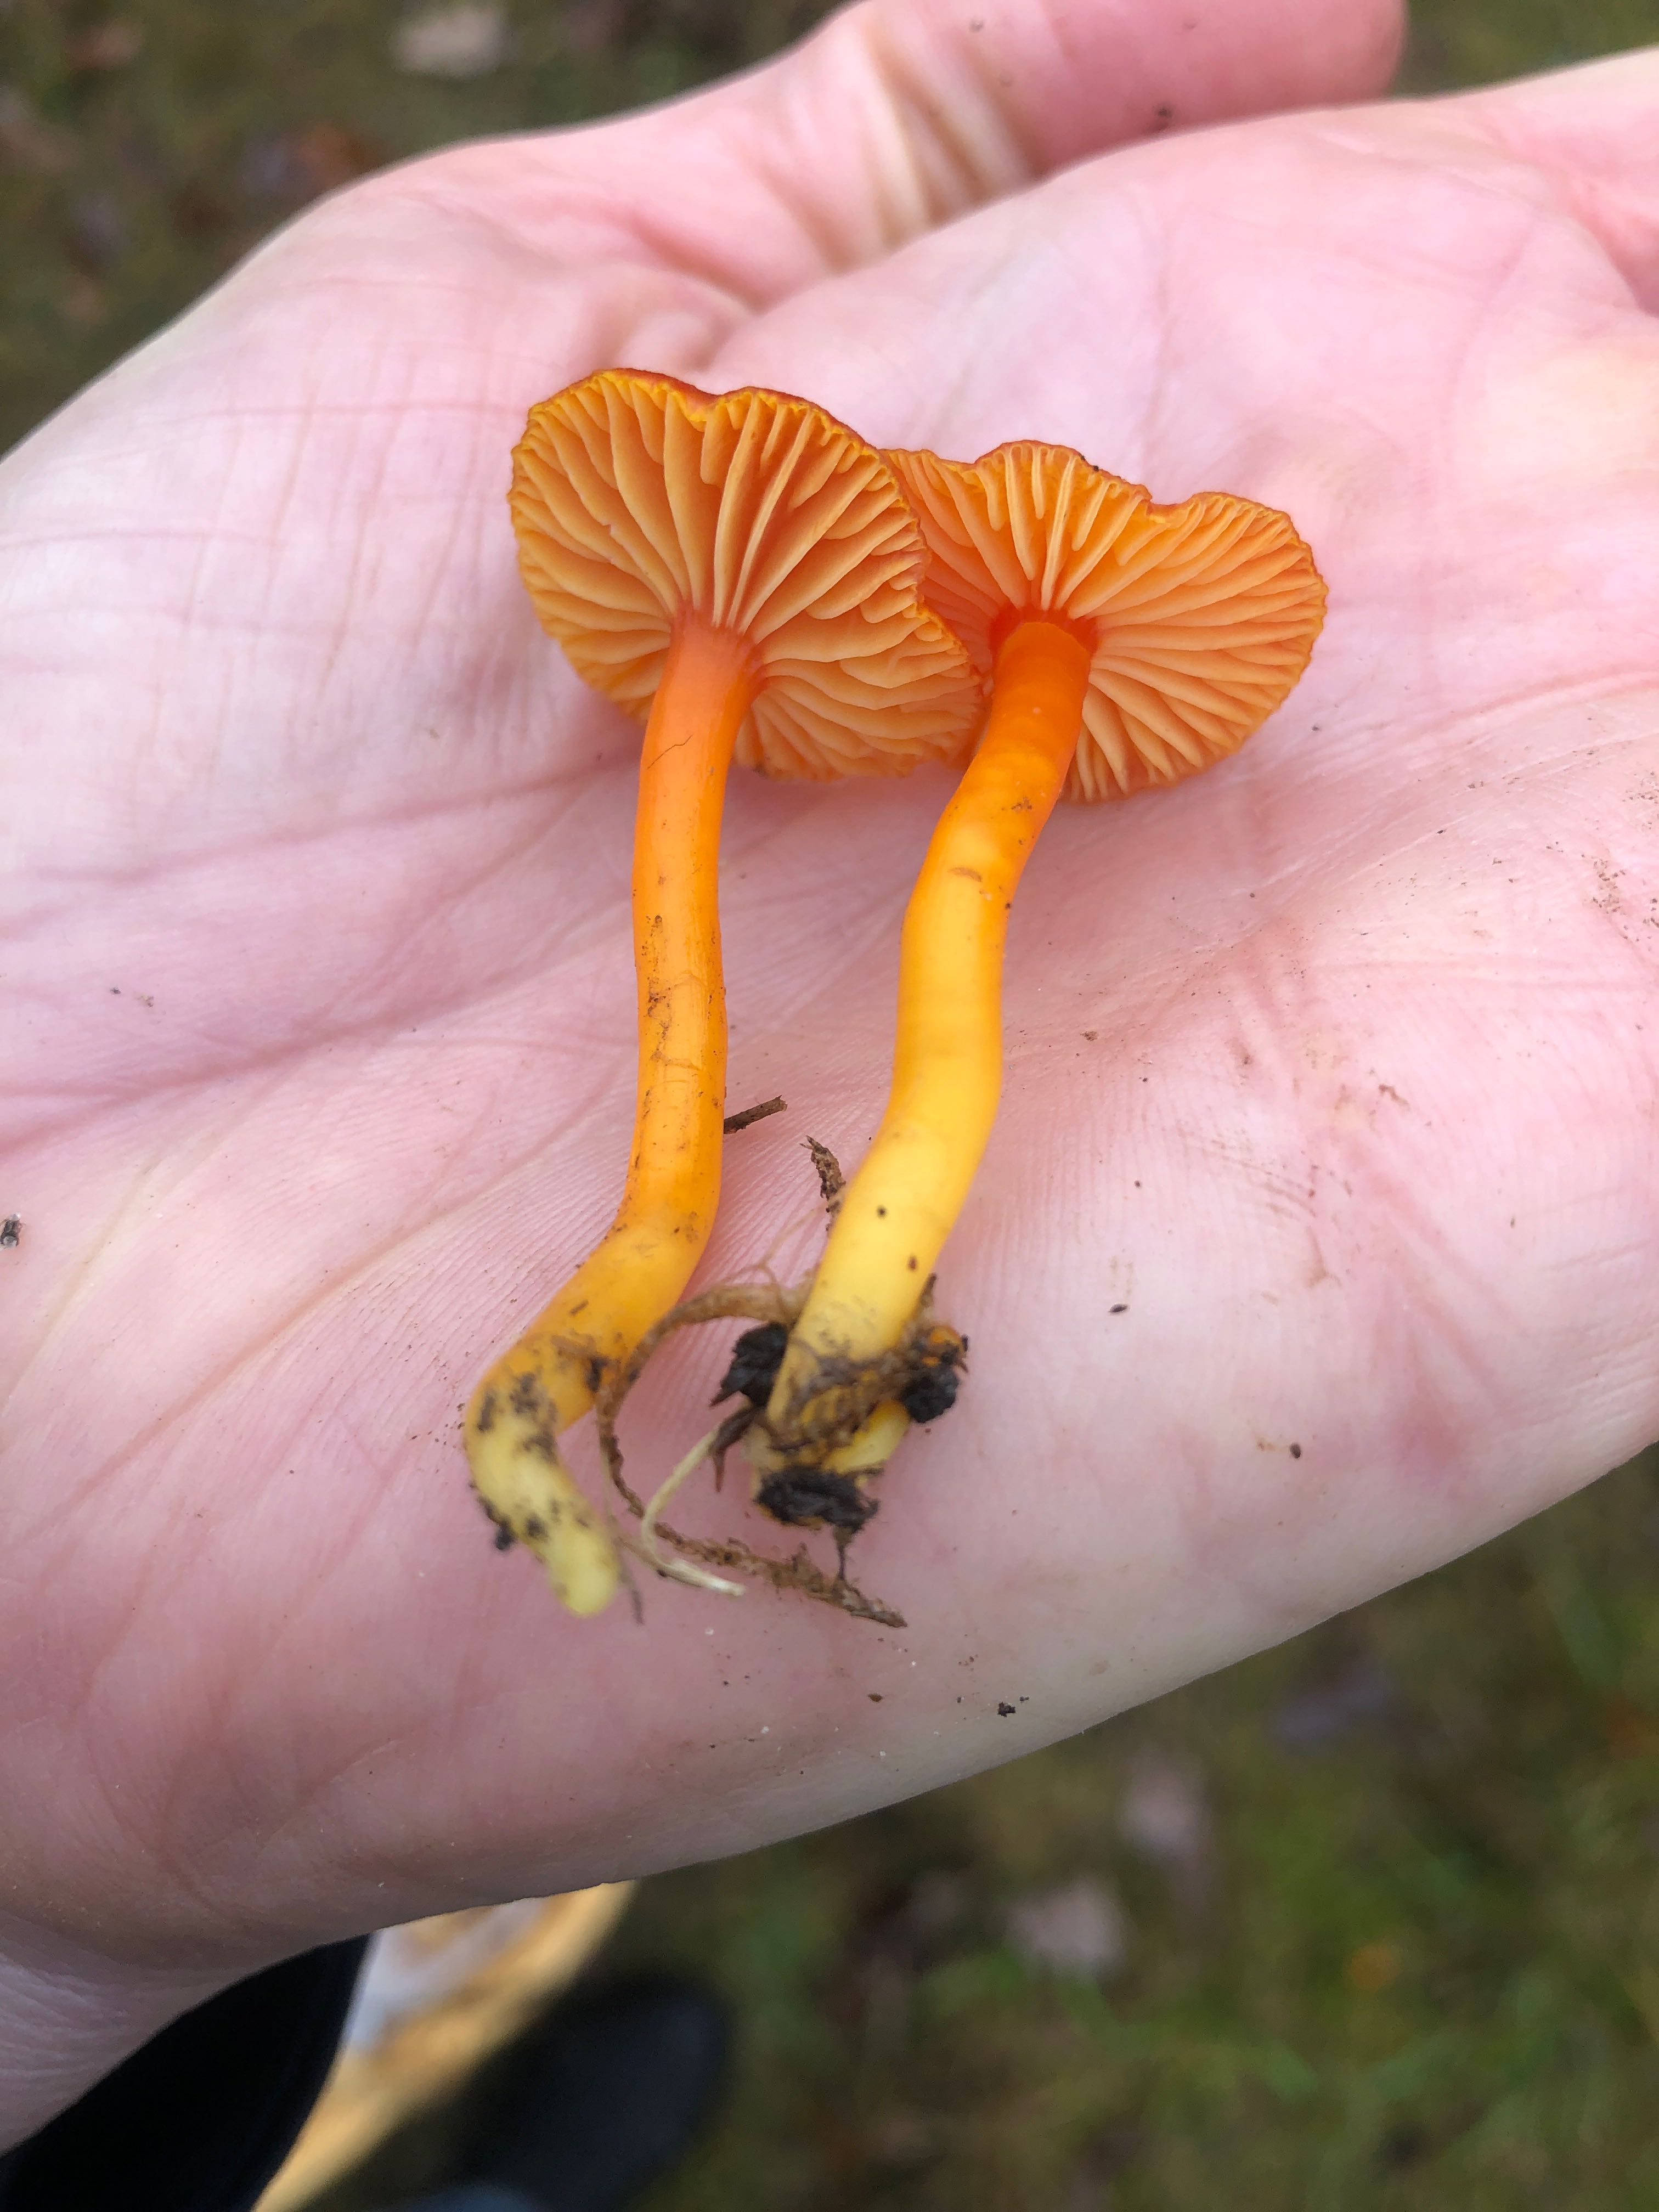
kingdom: Fungi
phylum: Basidiomycota
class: Agaricomycetes
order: Agaricales
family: Hygrophoraceae
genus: Hygrocybe
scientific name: Hygrocybe miniata
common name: mønje-vokshat
